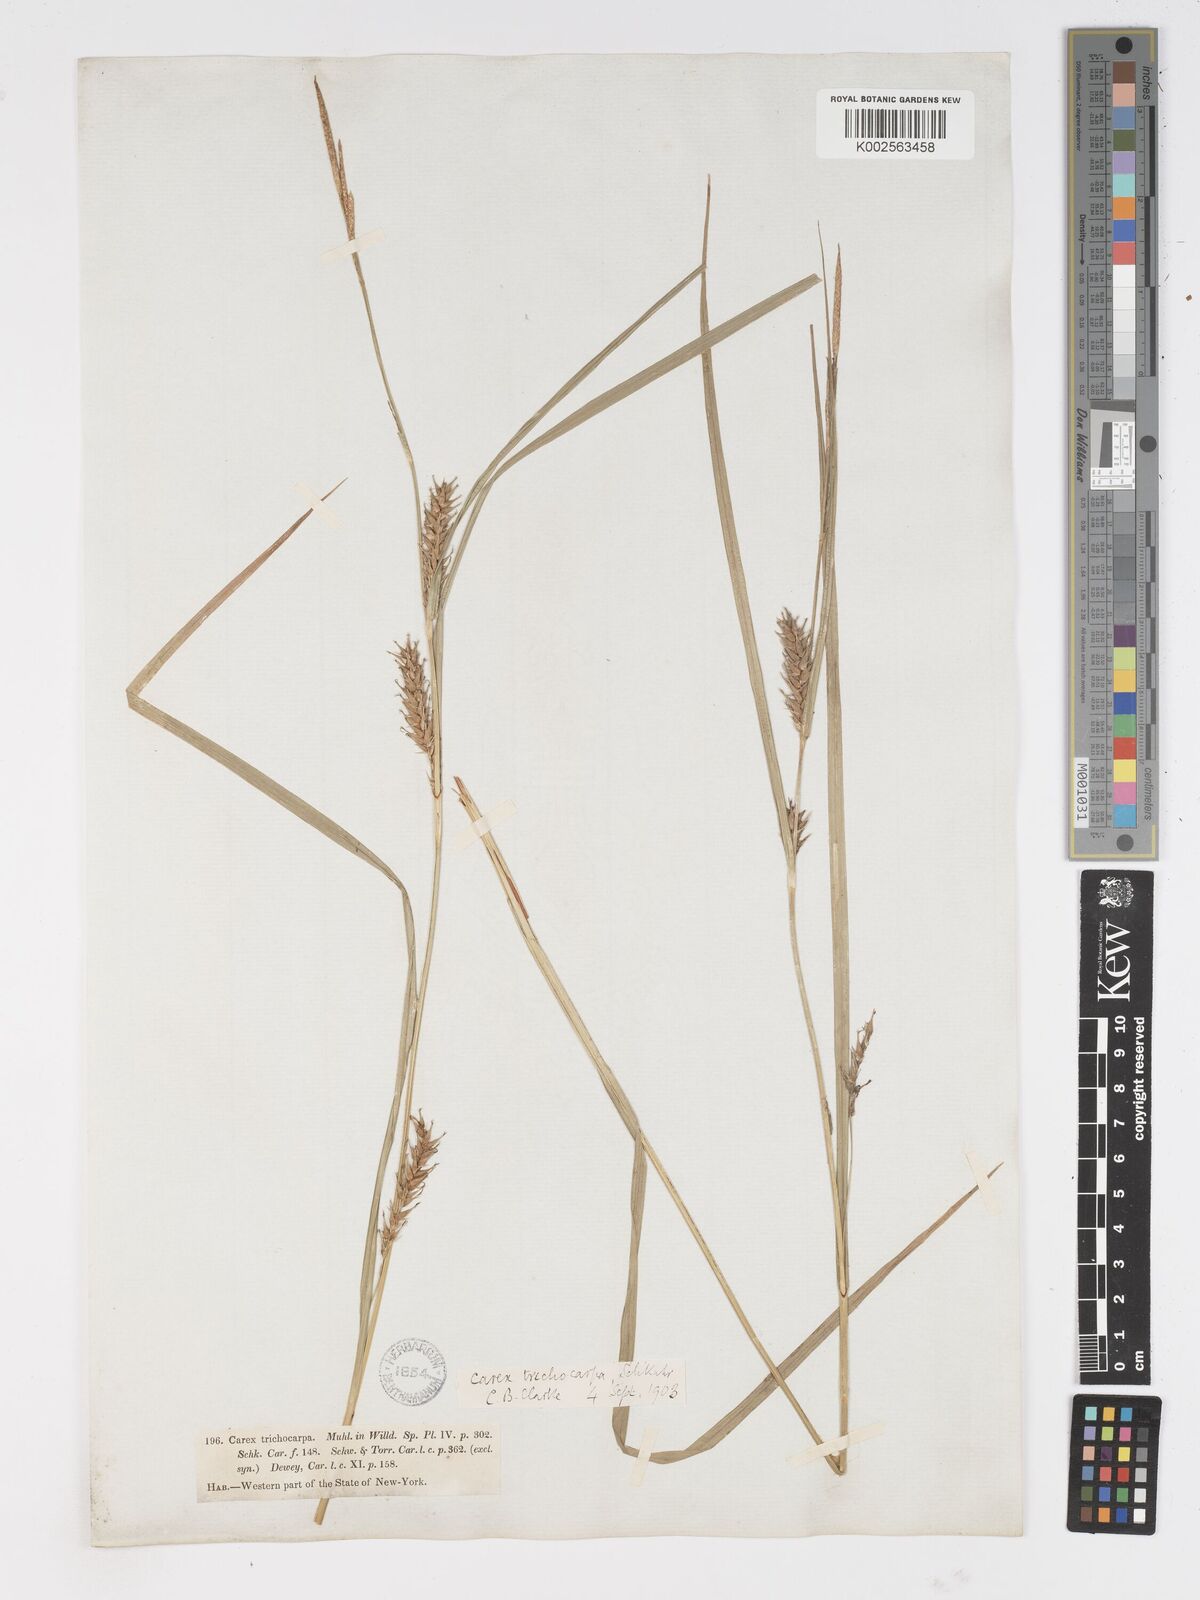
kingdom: Plantae
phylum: Tracheophyta
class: Liliopsida
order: Poales
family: Cyperaceae
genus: Carex
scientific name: Carex trichocarpa
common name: Hairy-fruited lake sedge
